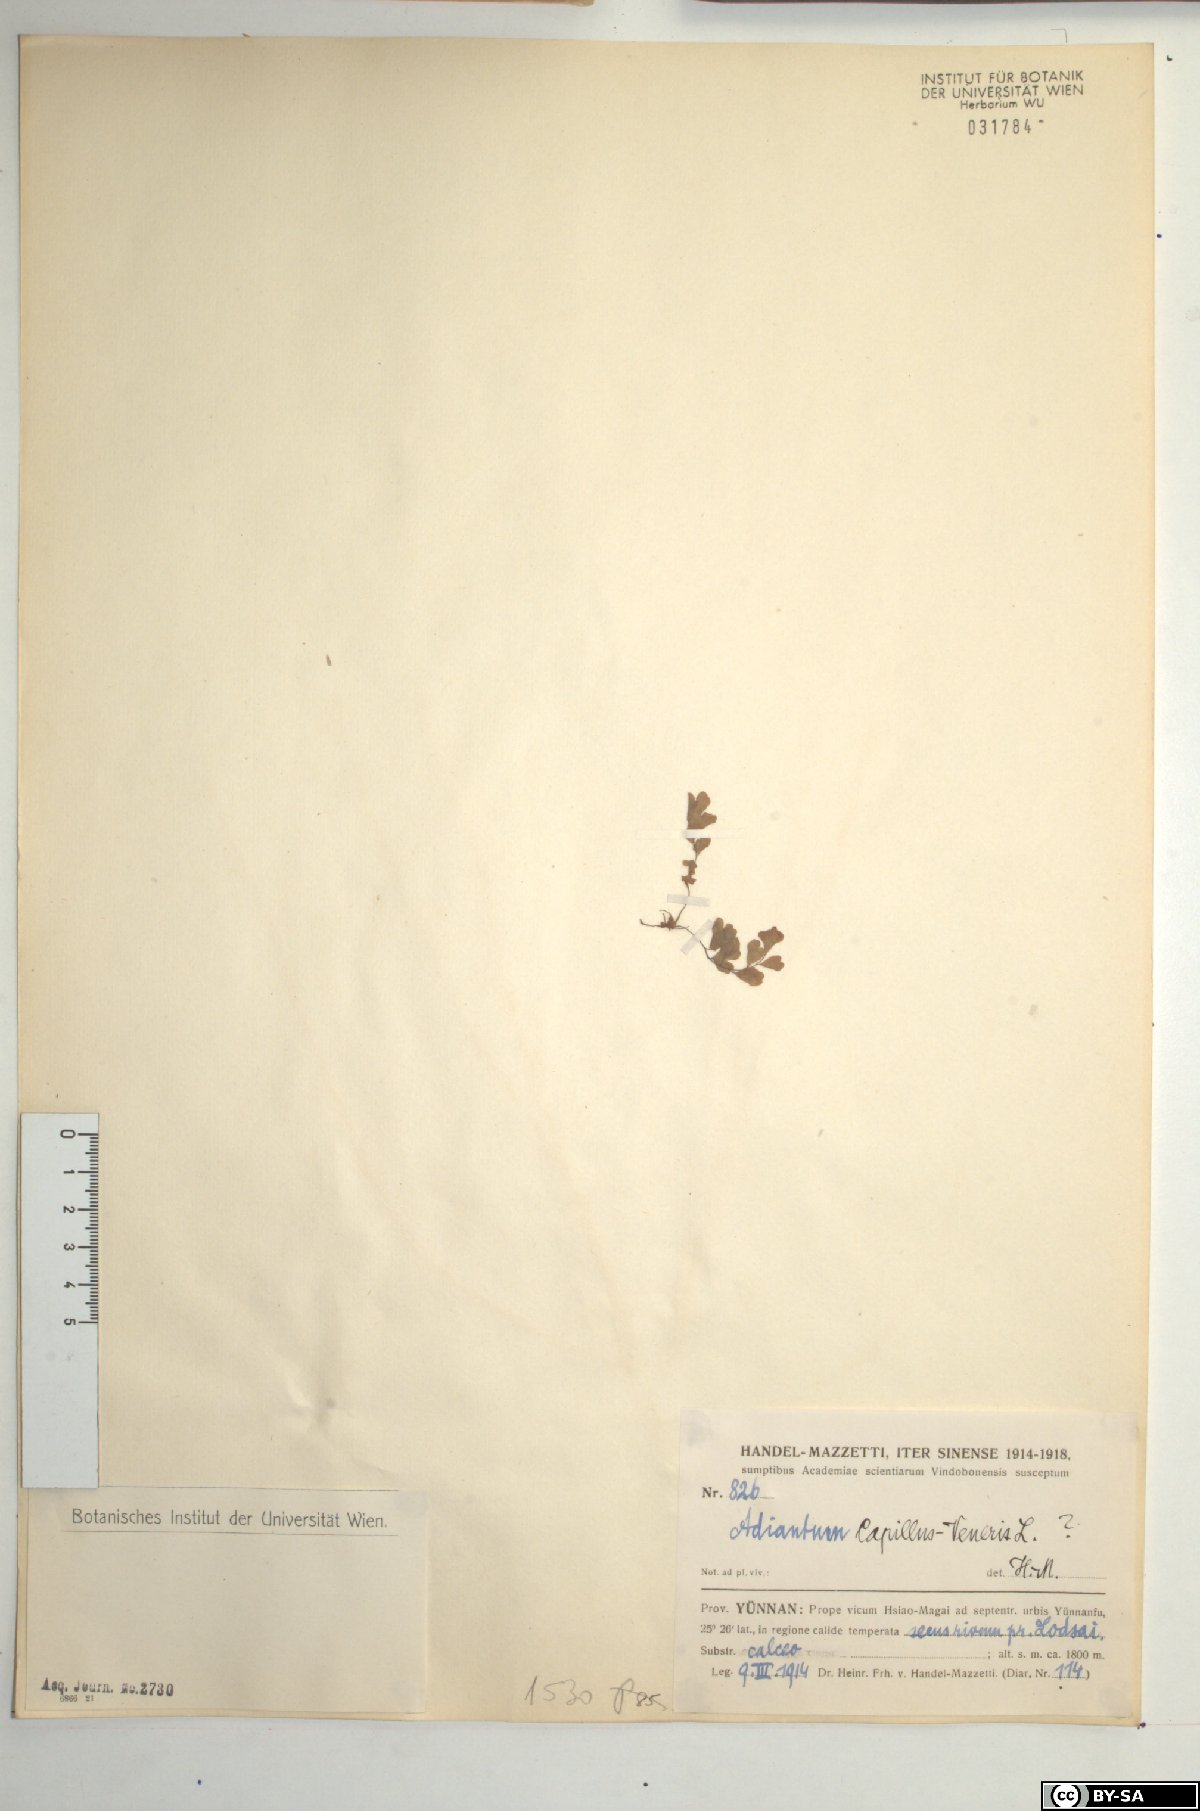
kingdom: Plantae
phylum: Tracheophyta
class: Polypodiopsida
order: Polypodiales
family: Pteridaceae
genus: Adiantum
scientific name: Adiantum capillus-veneris
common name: Maidenhair fern
